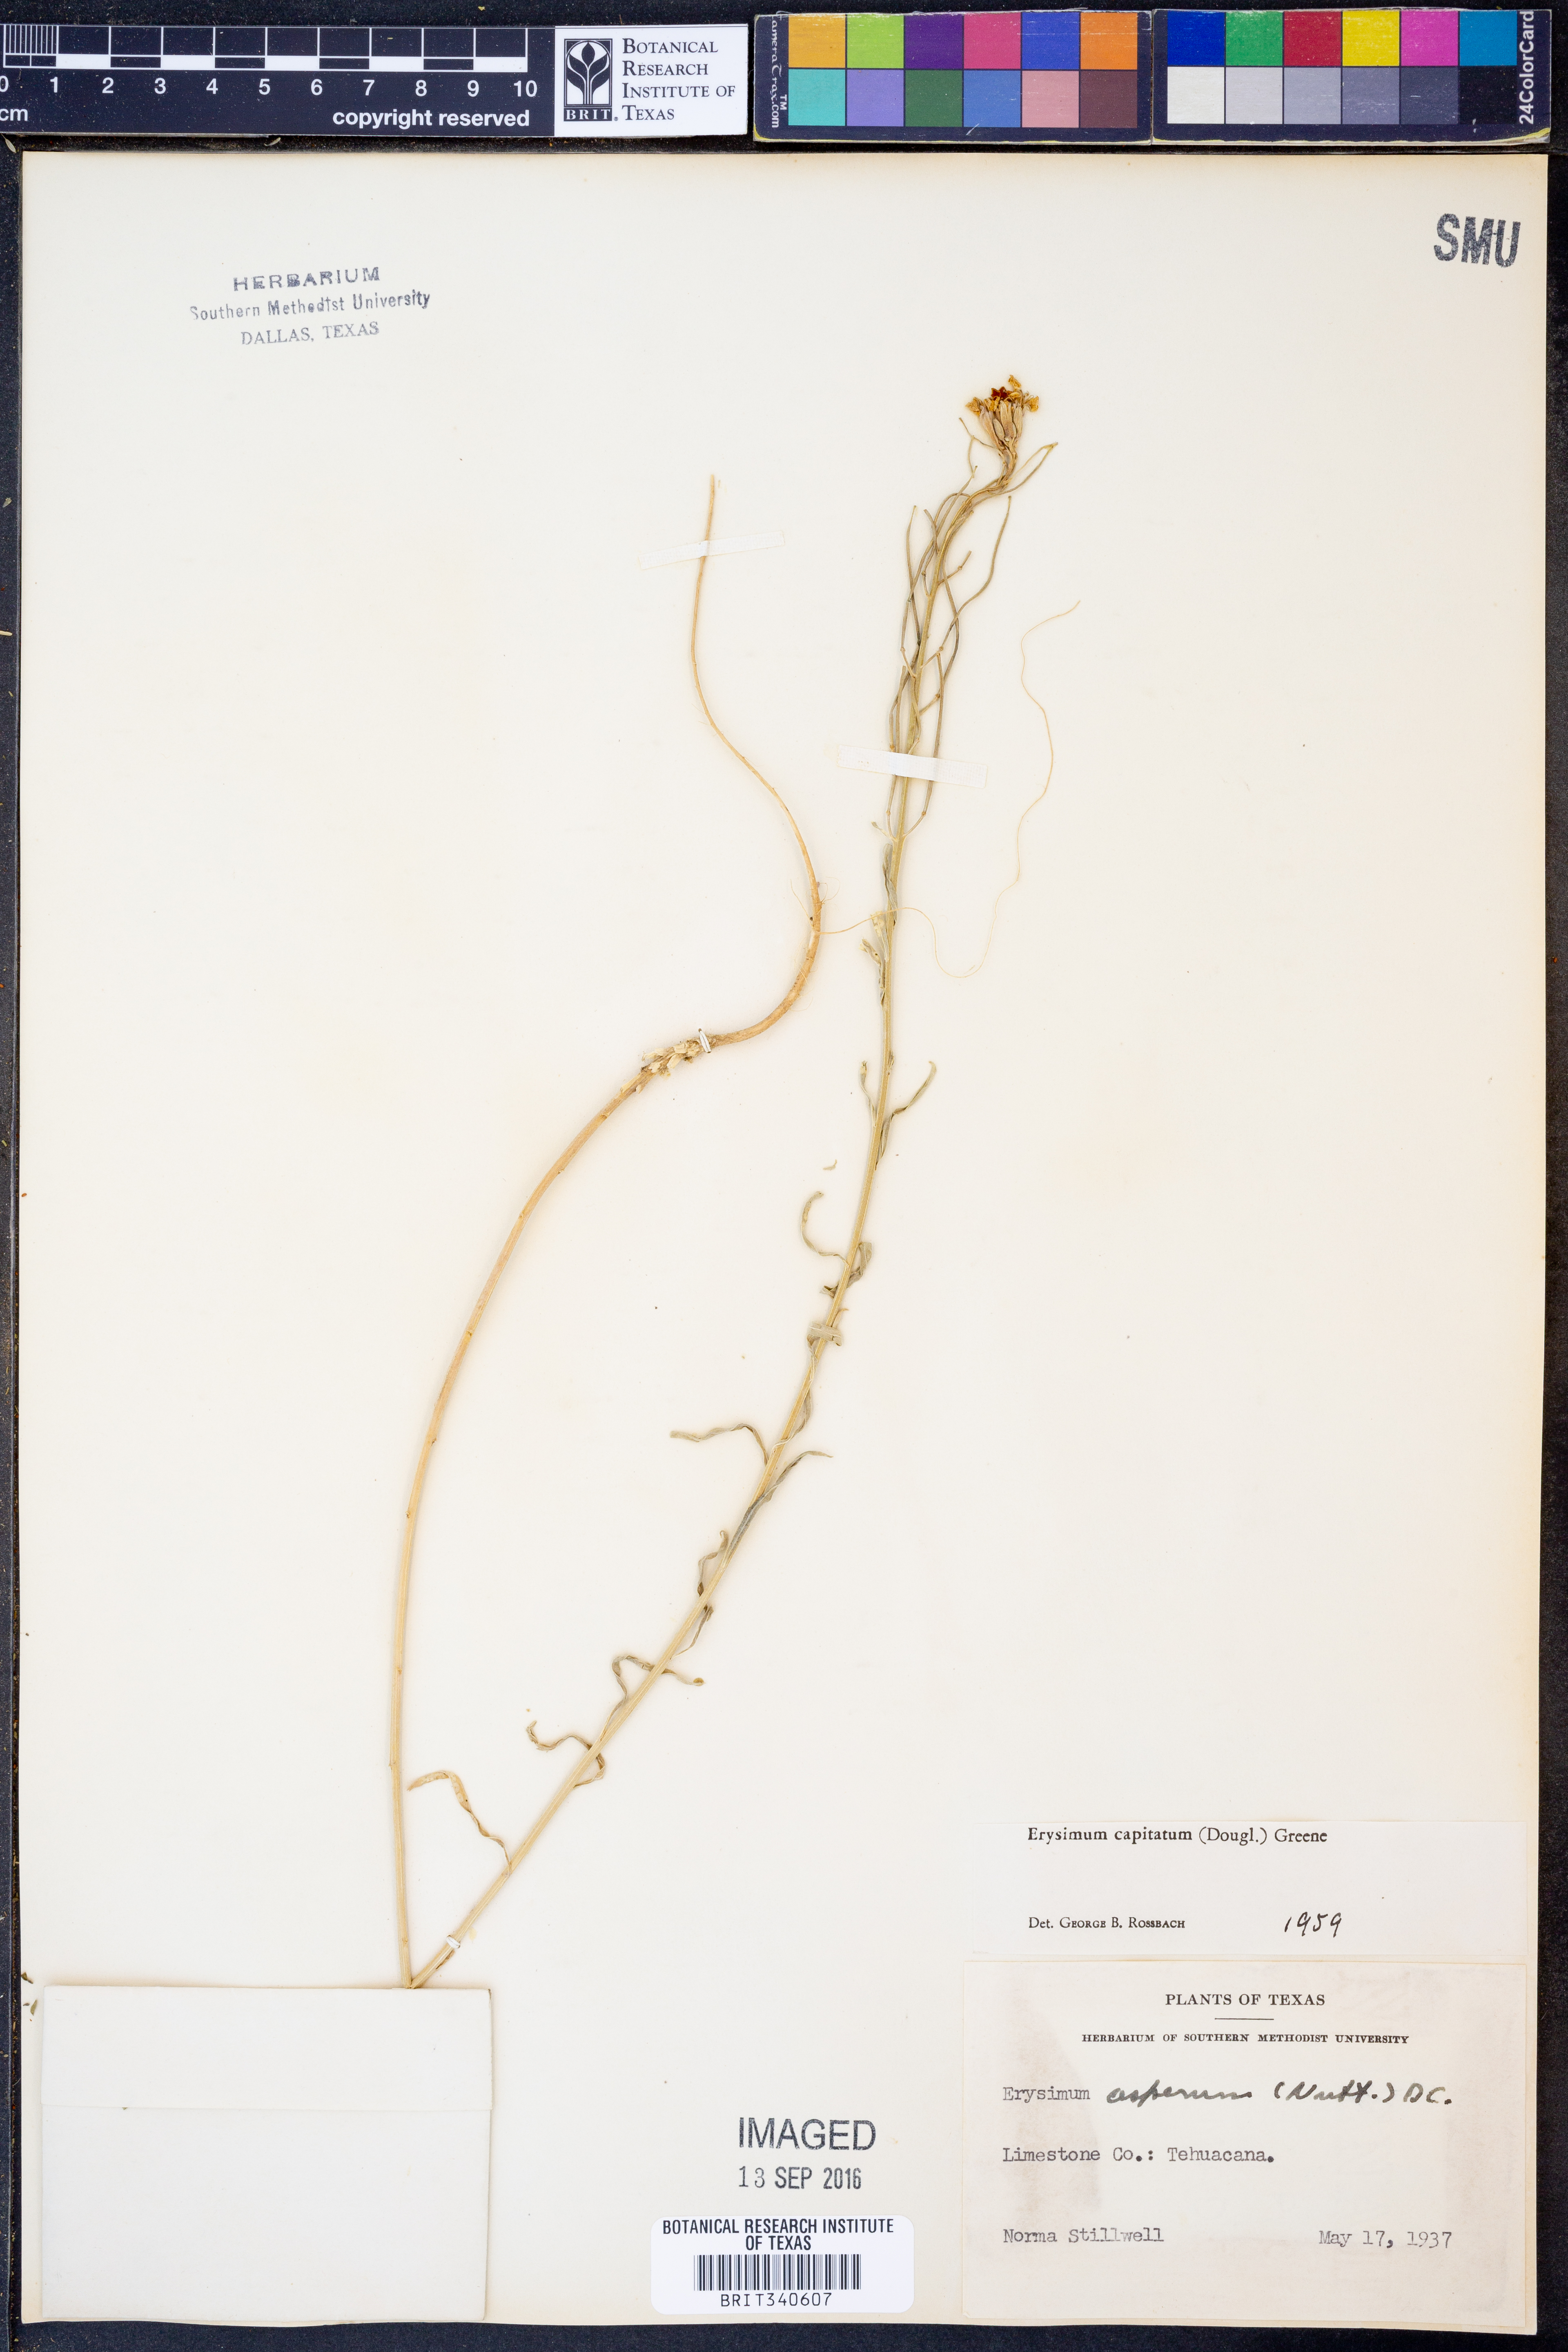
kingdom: Plantae
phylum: Tracheophyta
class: Magnoliopsida
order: Brassicales
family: Brassicaceae
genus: Erysimum
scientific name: Erysimum capitatum
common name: Western wallflower
